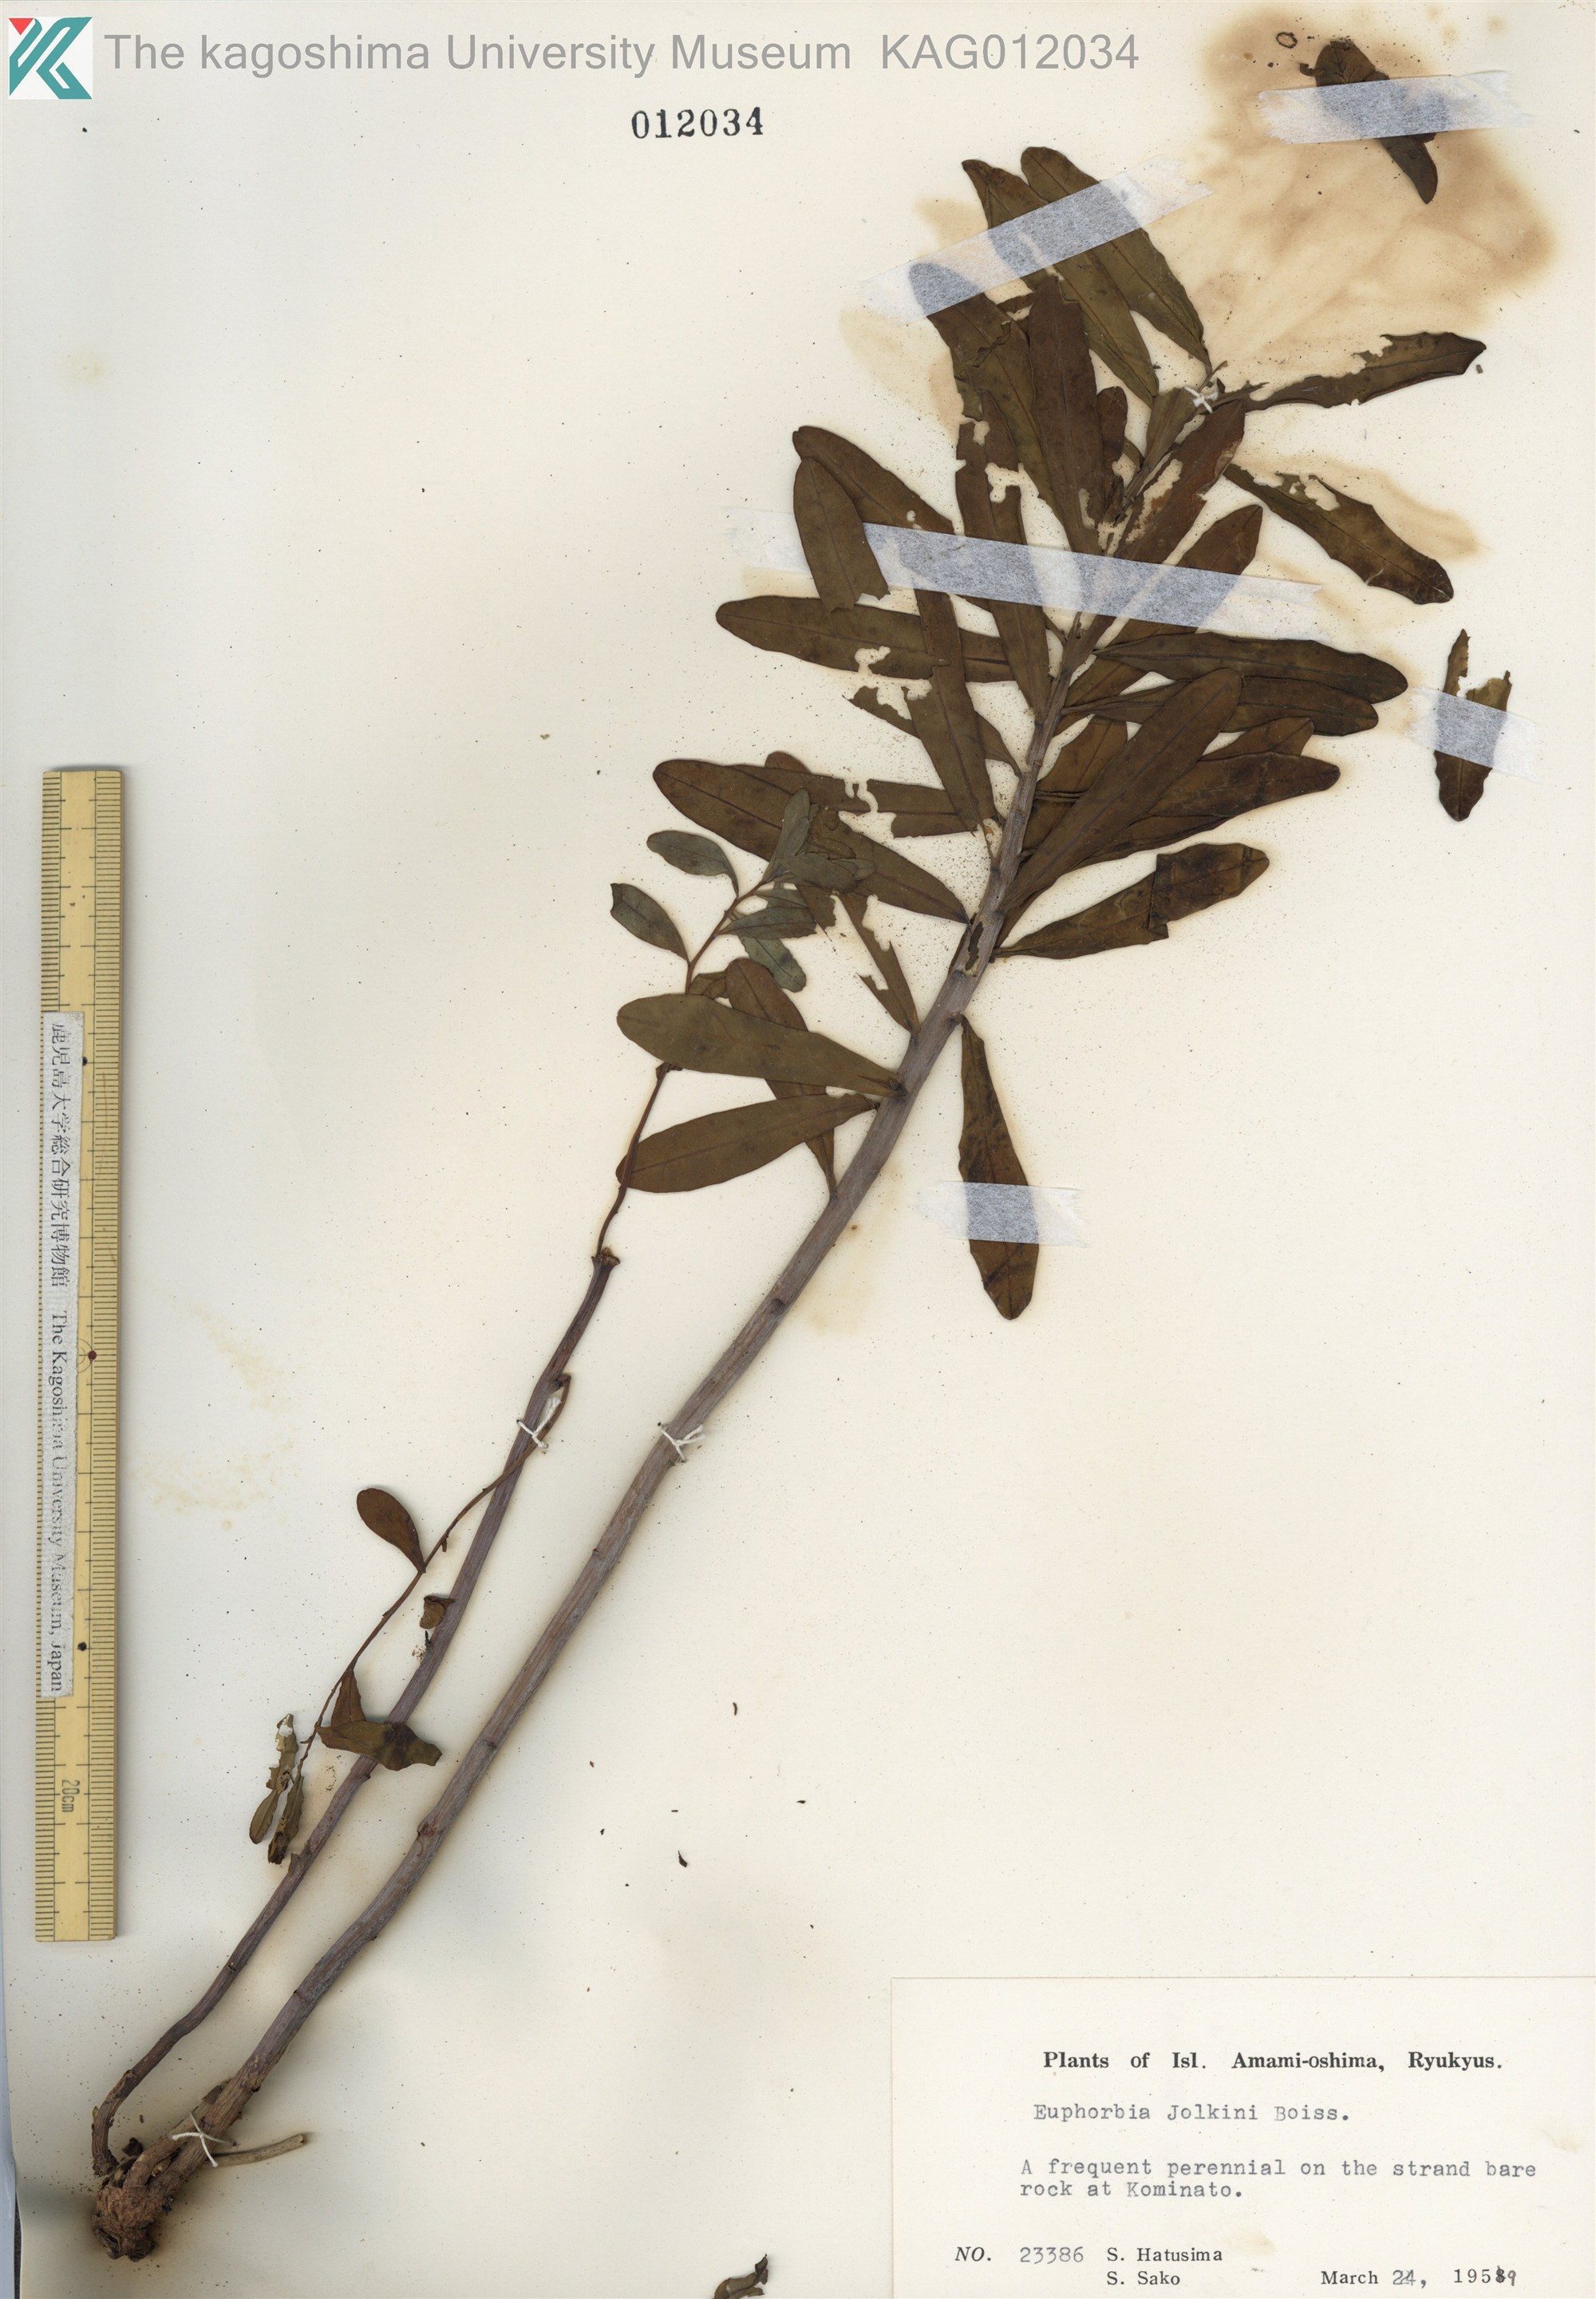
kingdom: Plantae
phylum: Tracheophyta
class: Magnoliopsida
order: Malpighiales
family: Euphorbiaceae
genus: Euphorbia
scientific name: Euphorbia jolkinii
